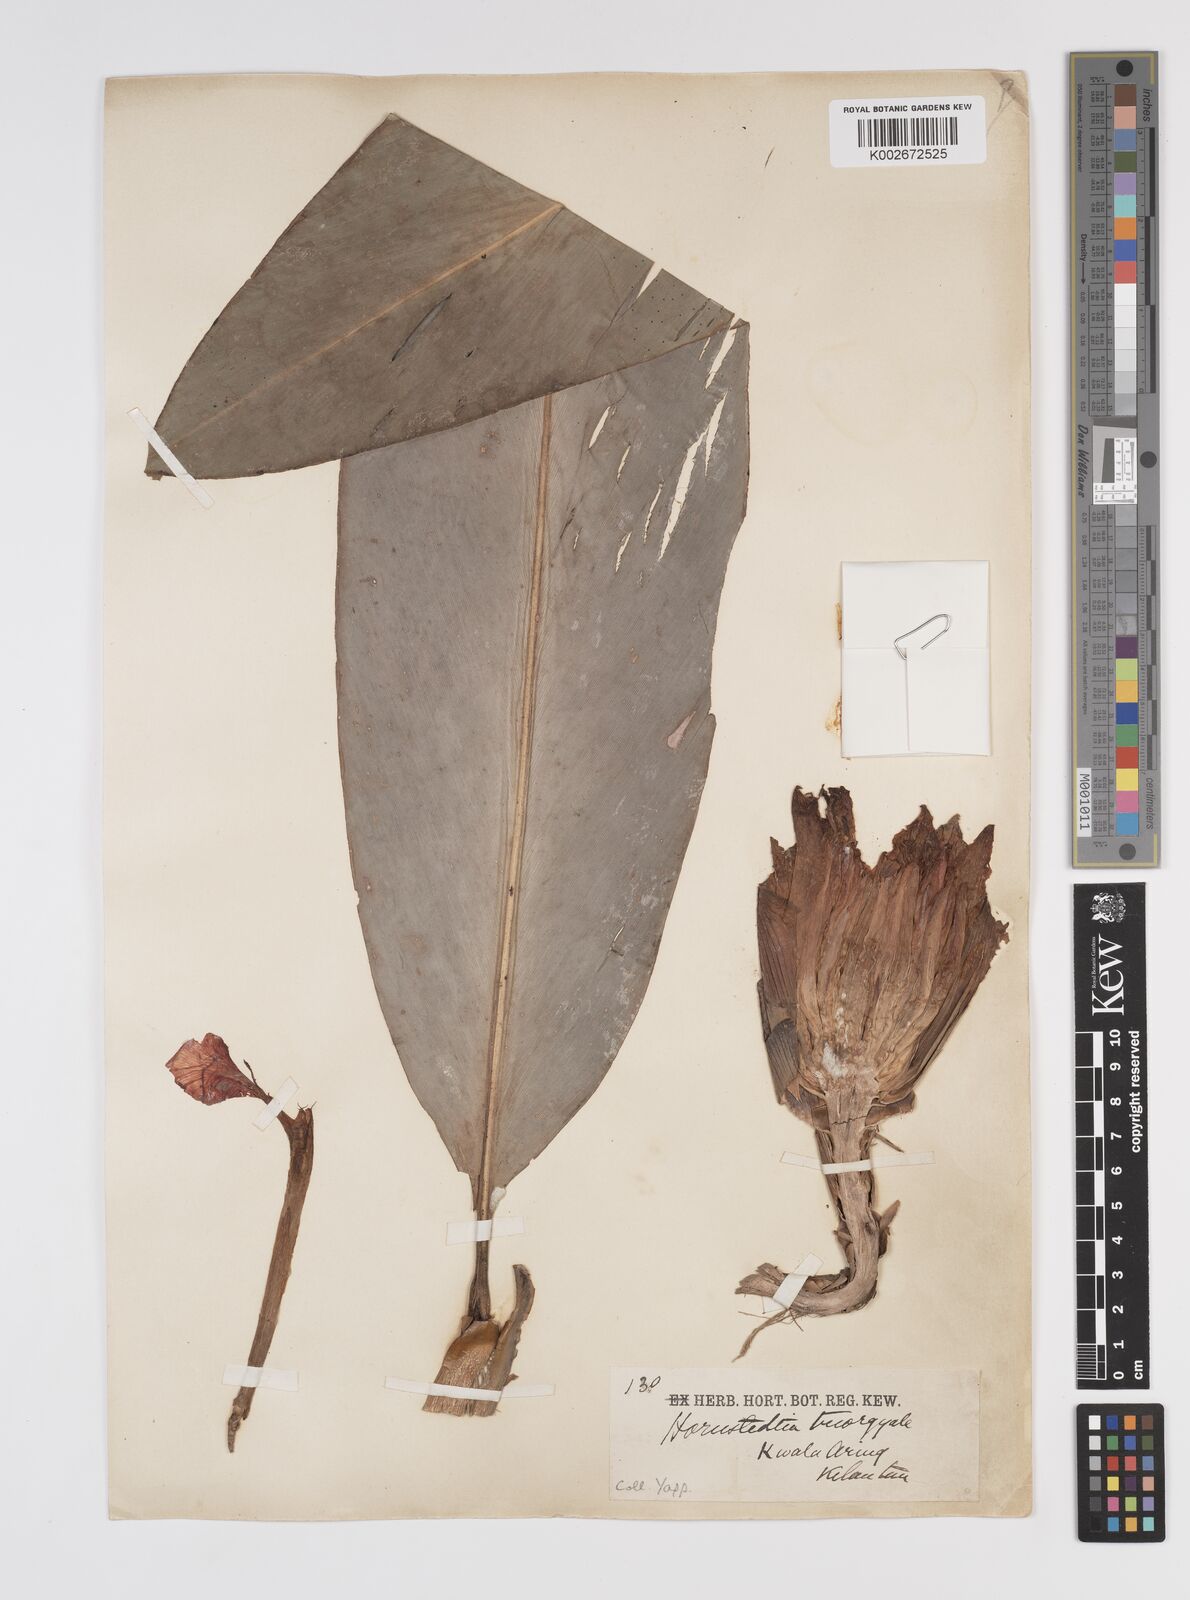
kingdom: Plantae
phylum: Tracheophyta
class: Liliopsida
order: Zingiberales
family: Zingiberaceae
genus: Etlingera
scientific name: Etlingera triorgyalis
